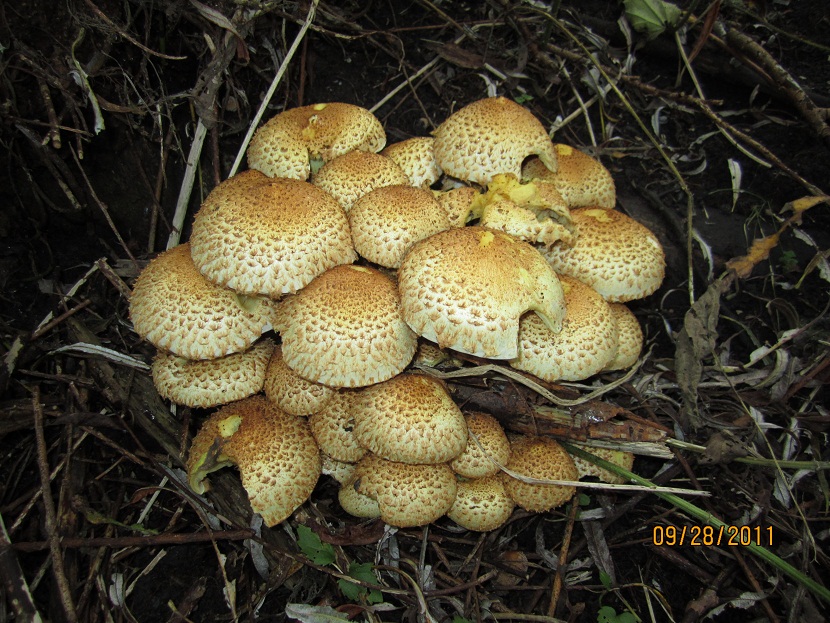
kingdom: Fungi
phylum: Basidiomycota
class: Agaricomycetes
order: Agaricales
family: Strophariaceae
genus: Pholiota
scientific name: Pholiota squarrosa
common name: krumskællet skælhat
